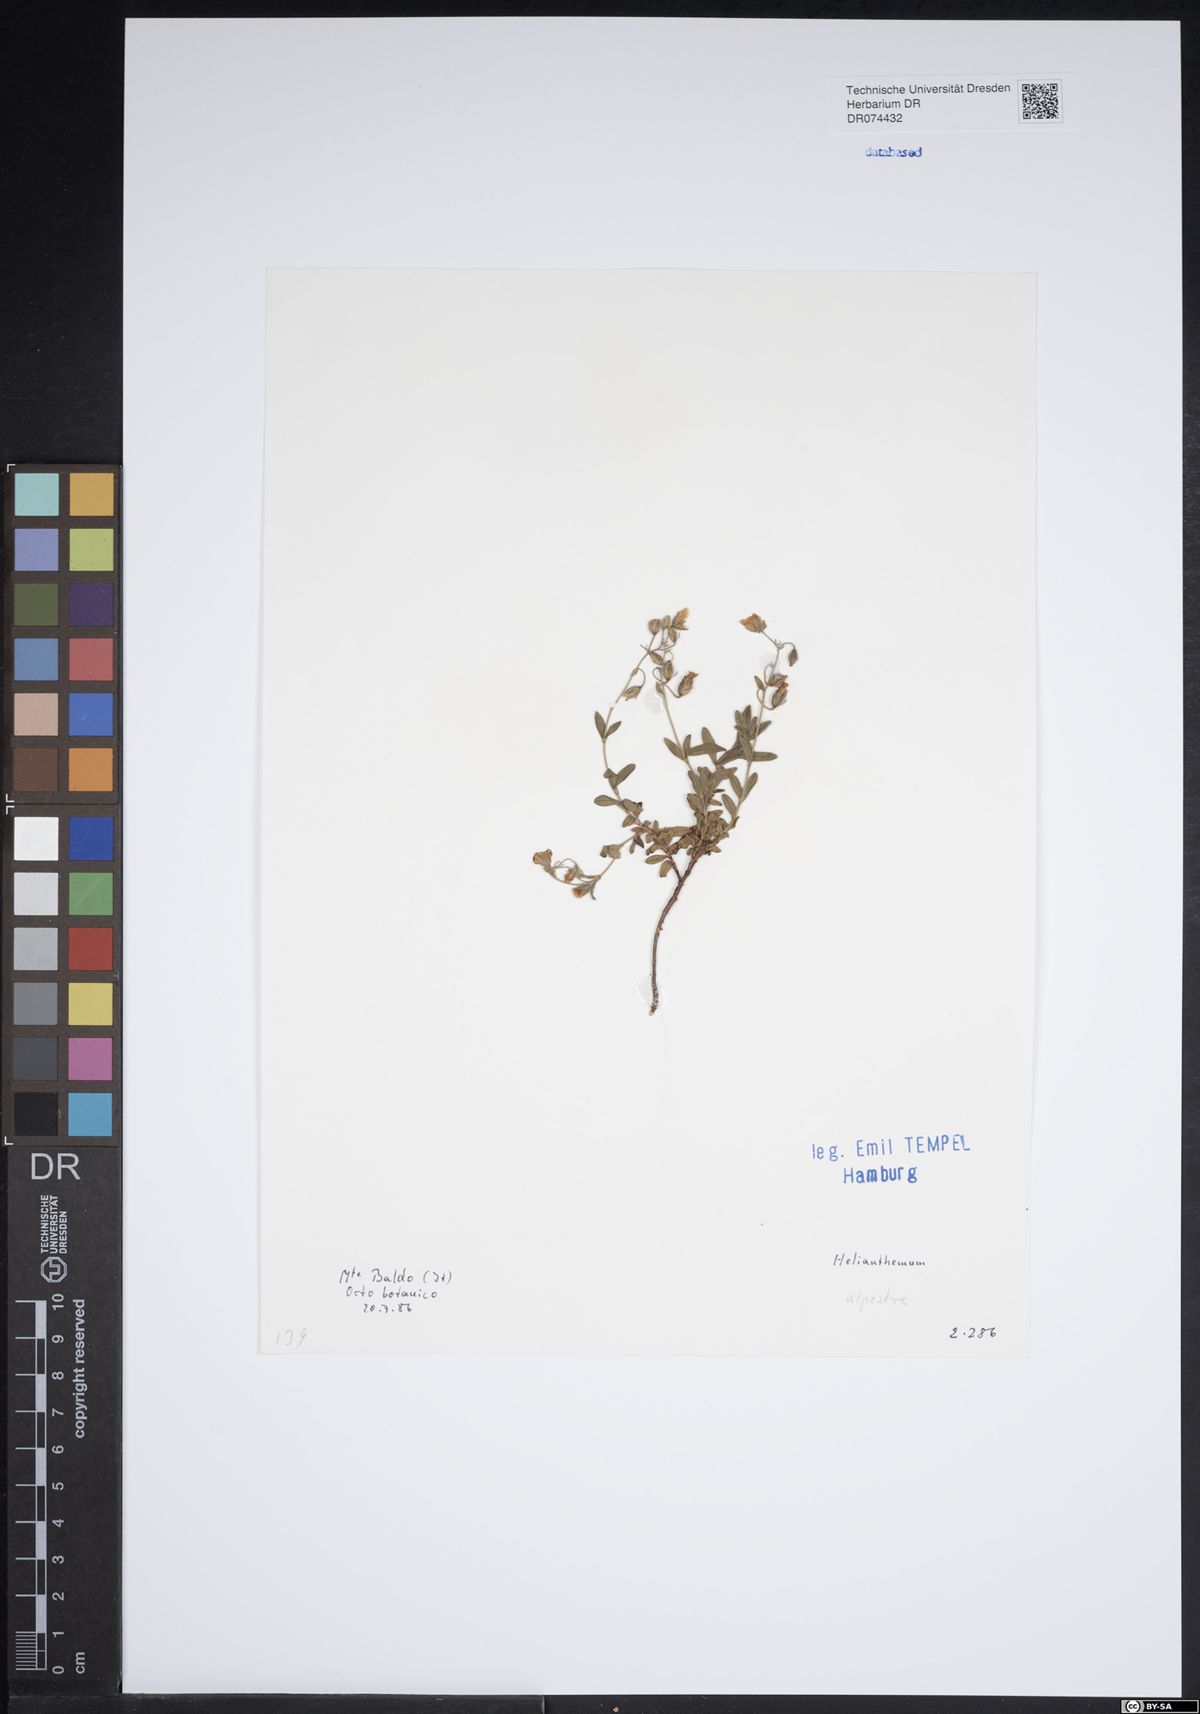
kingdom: Plantae
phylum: Tracheophyta
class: Magnoliopsida
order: Malvales
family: Cistaceae
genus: Helianthemum
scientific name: Helianthemum alpestre
